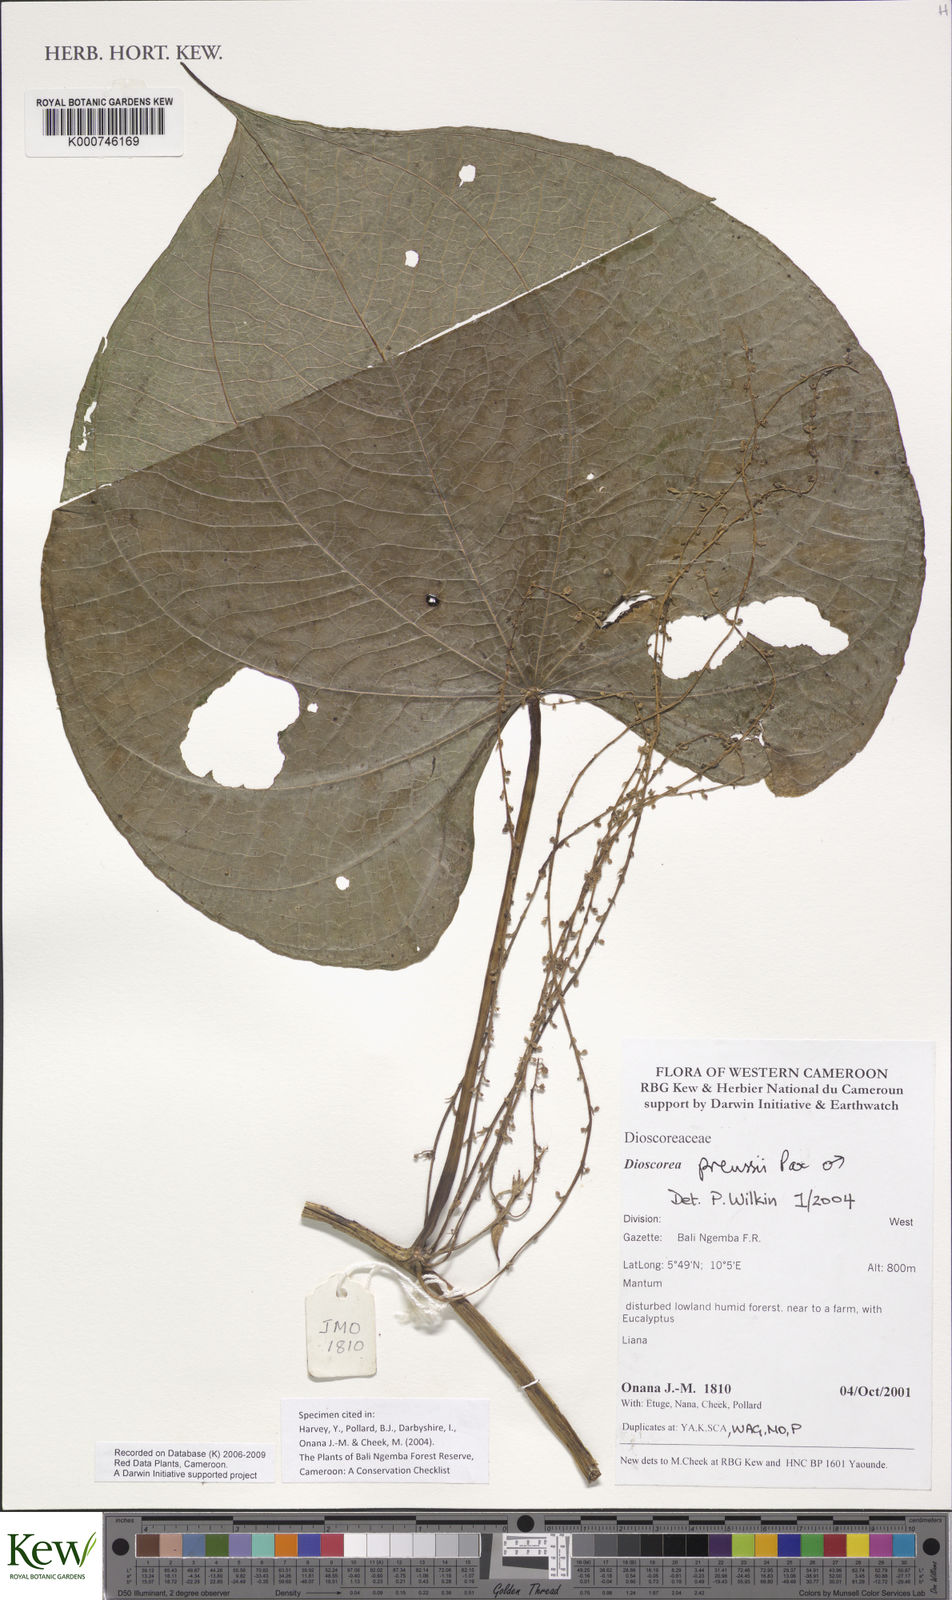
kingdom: Plantae
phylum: Tracheophyta
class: Liliopsida
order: Dioscoreales
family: Dioscoreaceae
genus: Dioscorea
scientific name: Dioscorea preussii
